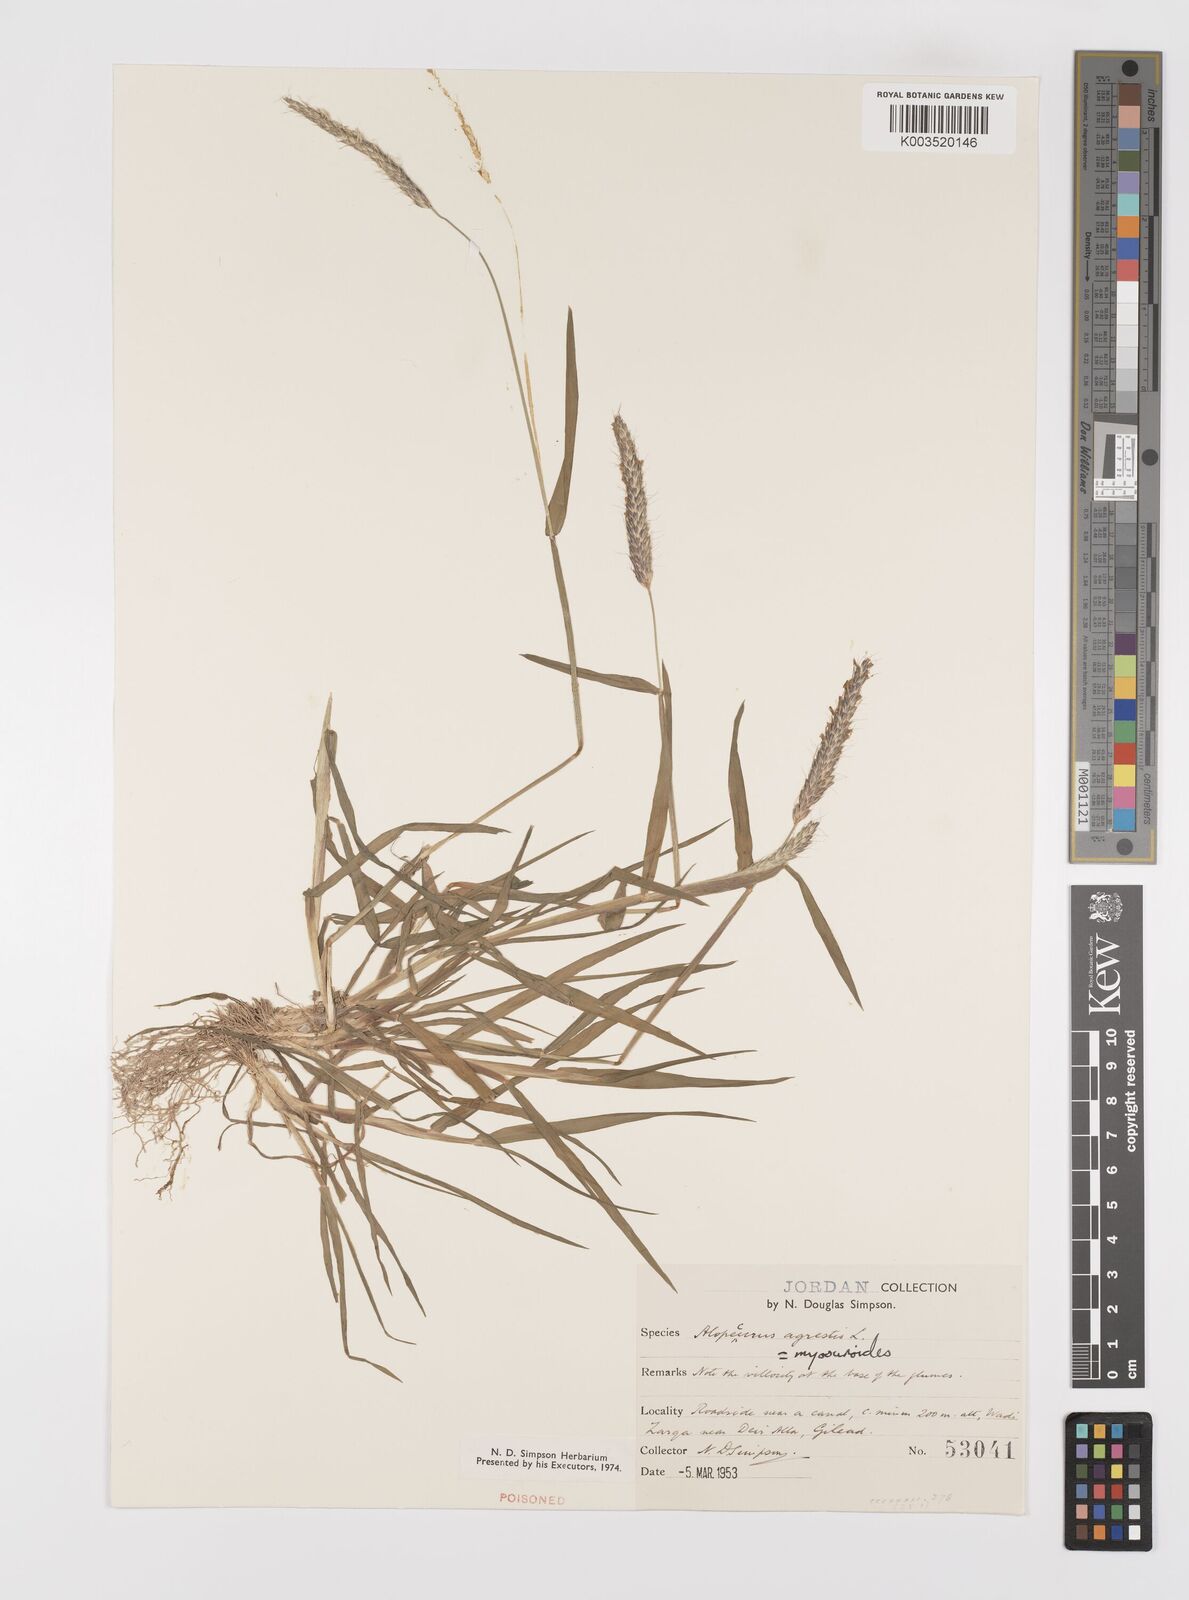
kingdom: Plantae
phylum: Tracheophyta
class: Liliopsida
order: Poales
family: Poaceae
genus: Alopecurus
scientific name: Alopecurus myosuroides
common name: Black-grass
